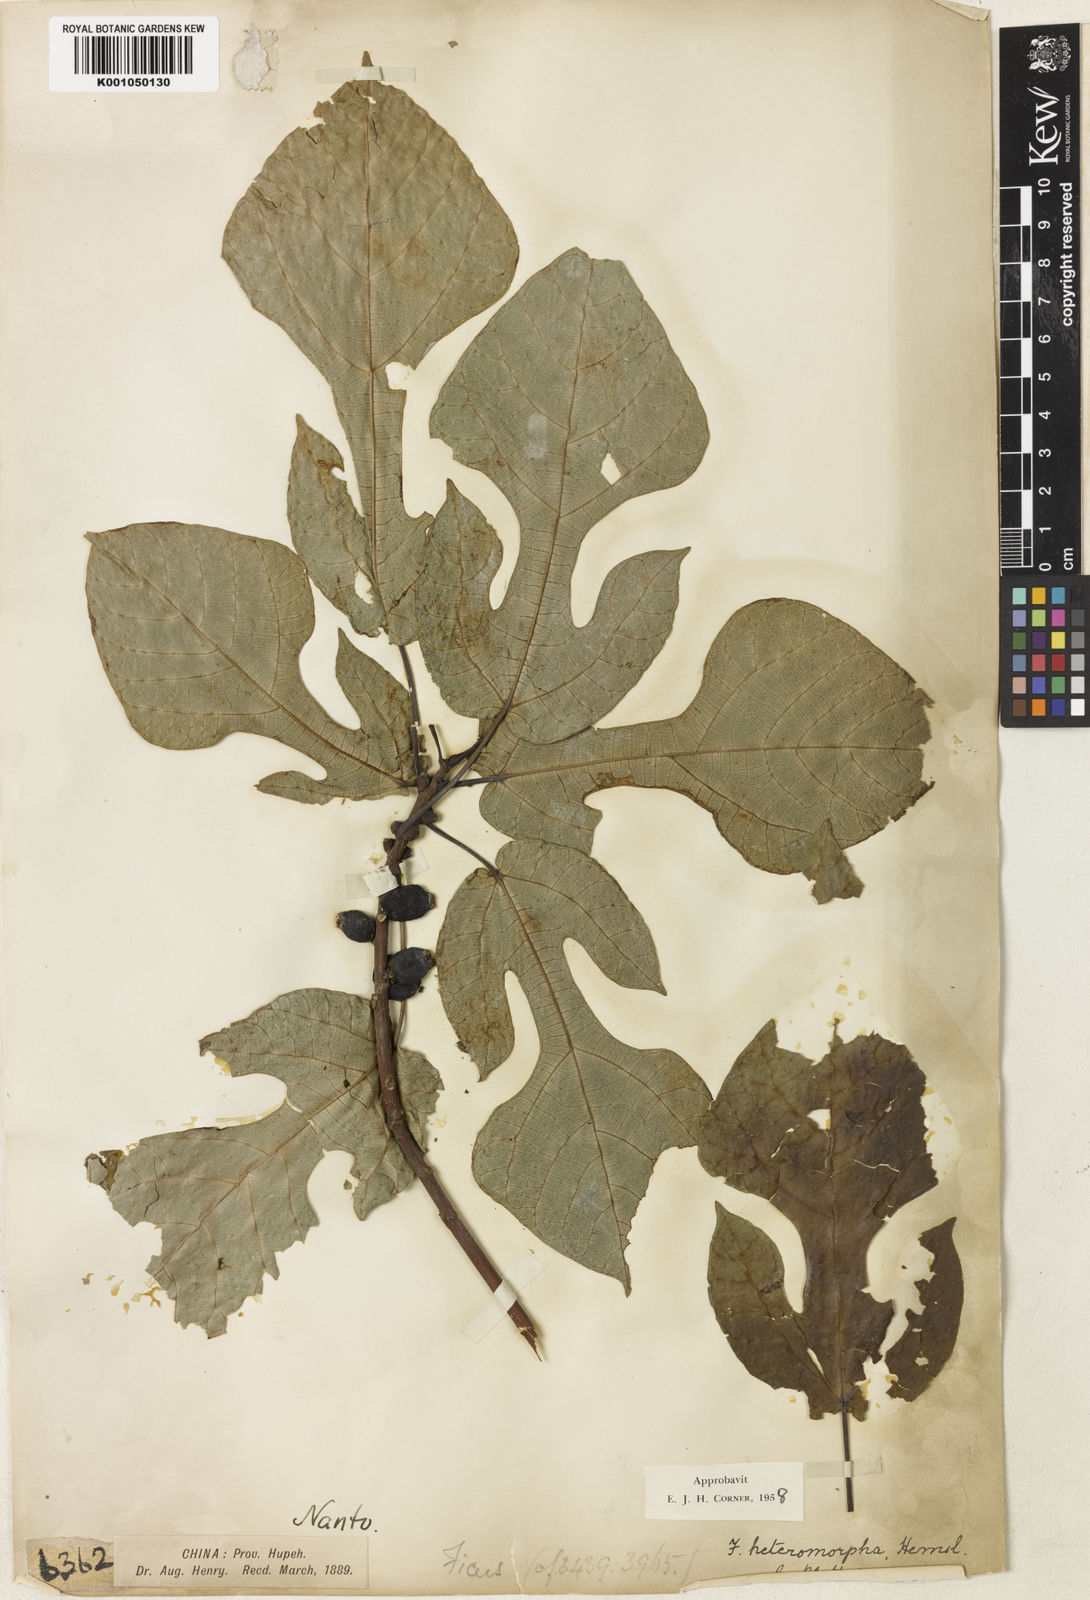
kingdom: Plantae
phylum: Tracheophyta
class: Magnoliopsida
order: Rosales
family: Moraceae
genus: Ficus
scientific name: Ficus heteromorpha
